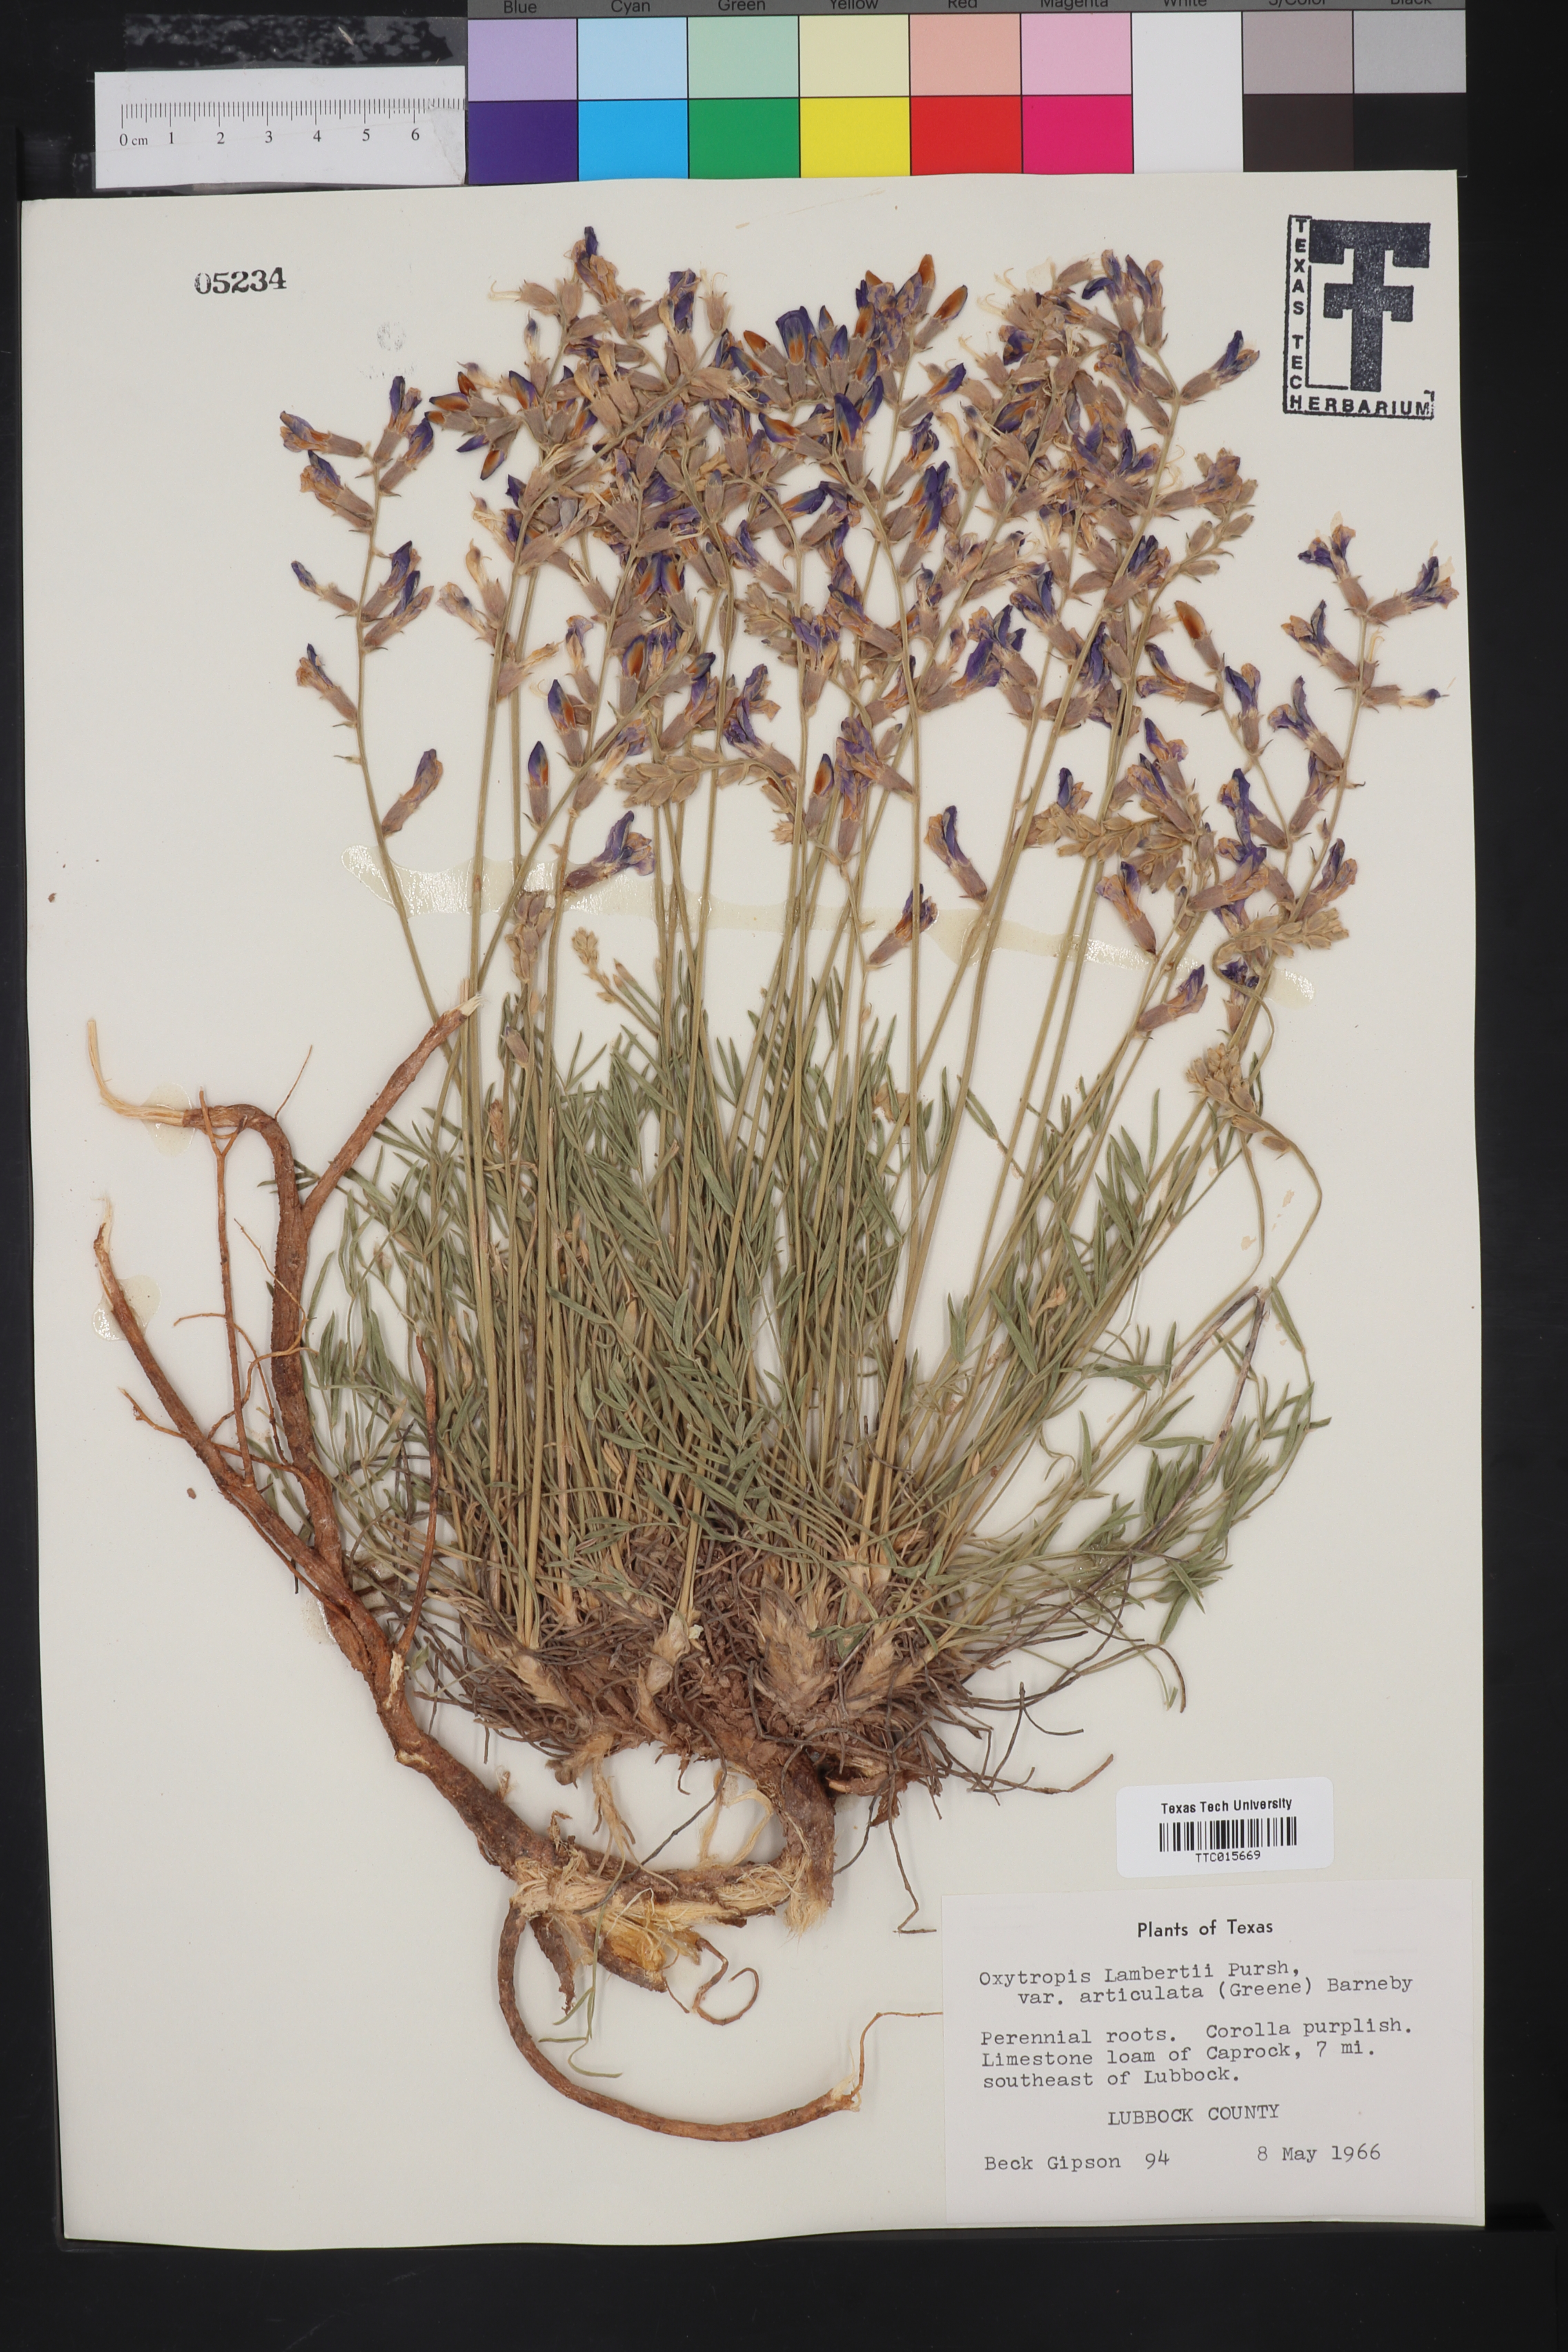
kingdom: Plantae
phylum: Tracheophyta
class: Magnoliopsida
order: Fabales
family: Fabaceae
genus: Oxytropis
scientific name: Oxytropis lambertii
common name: Purple locoweed
